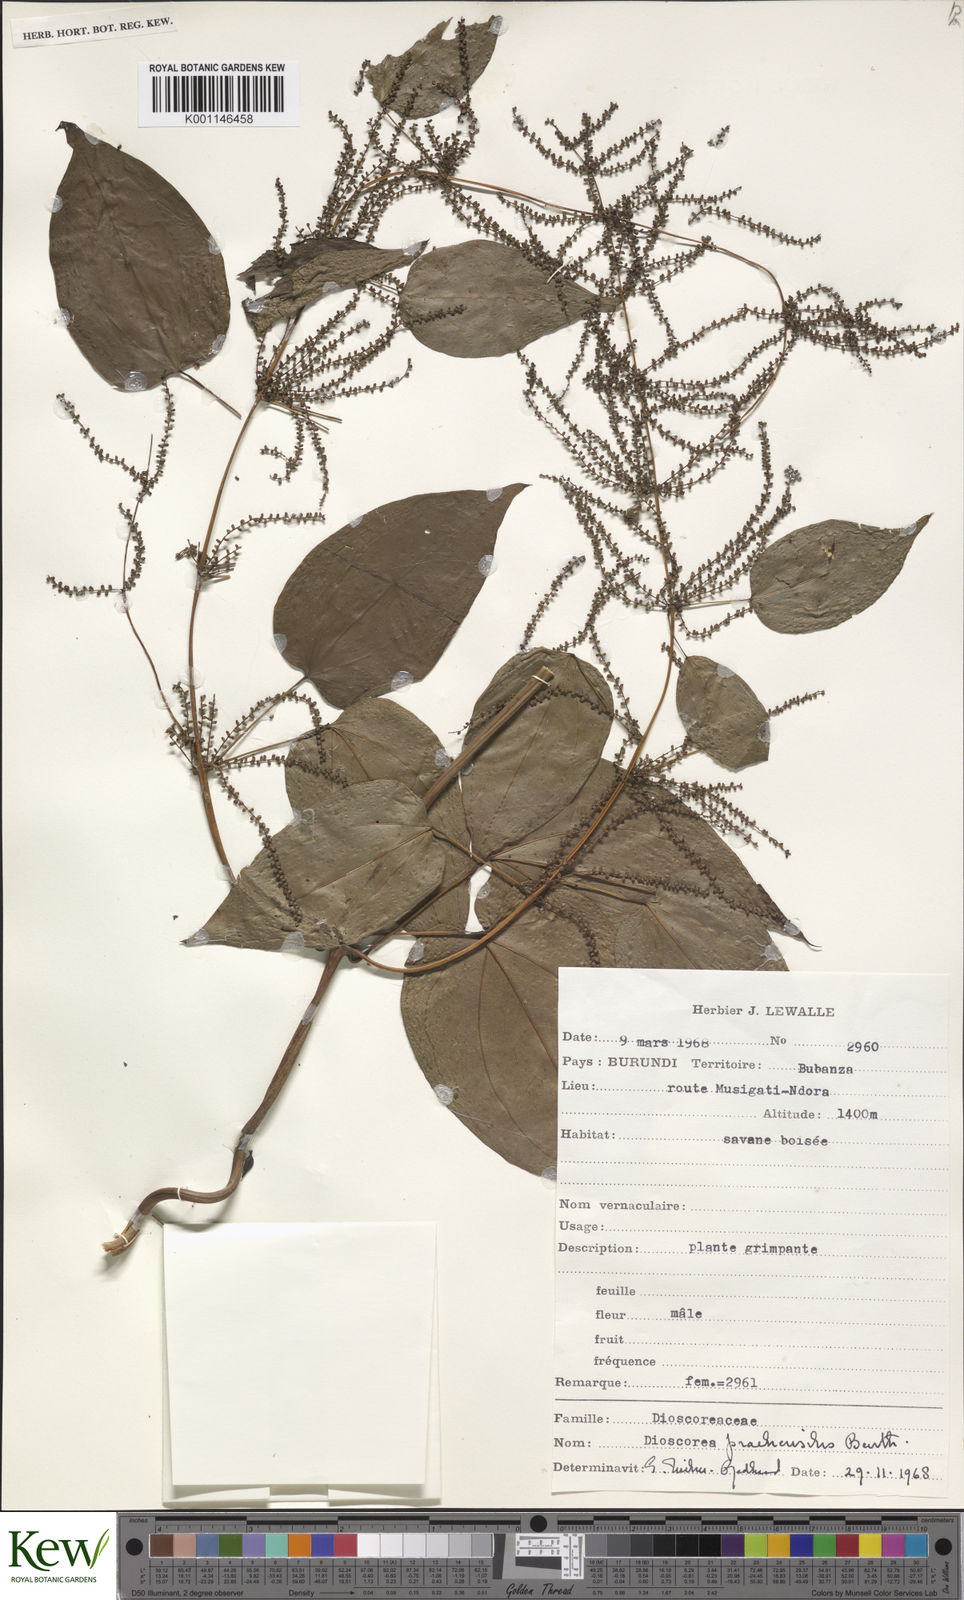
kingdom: Plantae
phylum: Tracheophyta
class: Liliopsida
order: Dioscoreales
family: Dioscoreaceae
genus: Dioscorea
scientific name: Dioscorea praehensilis
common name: Bush yam
